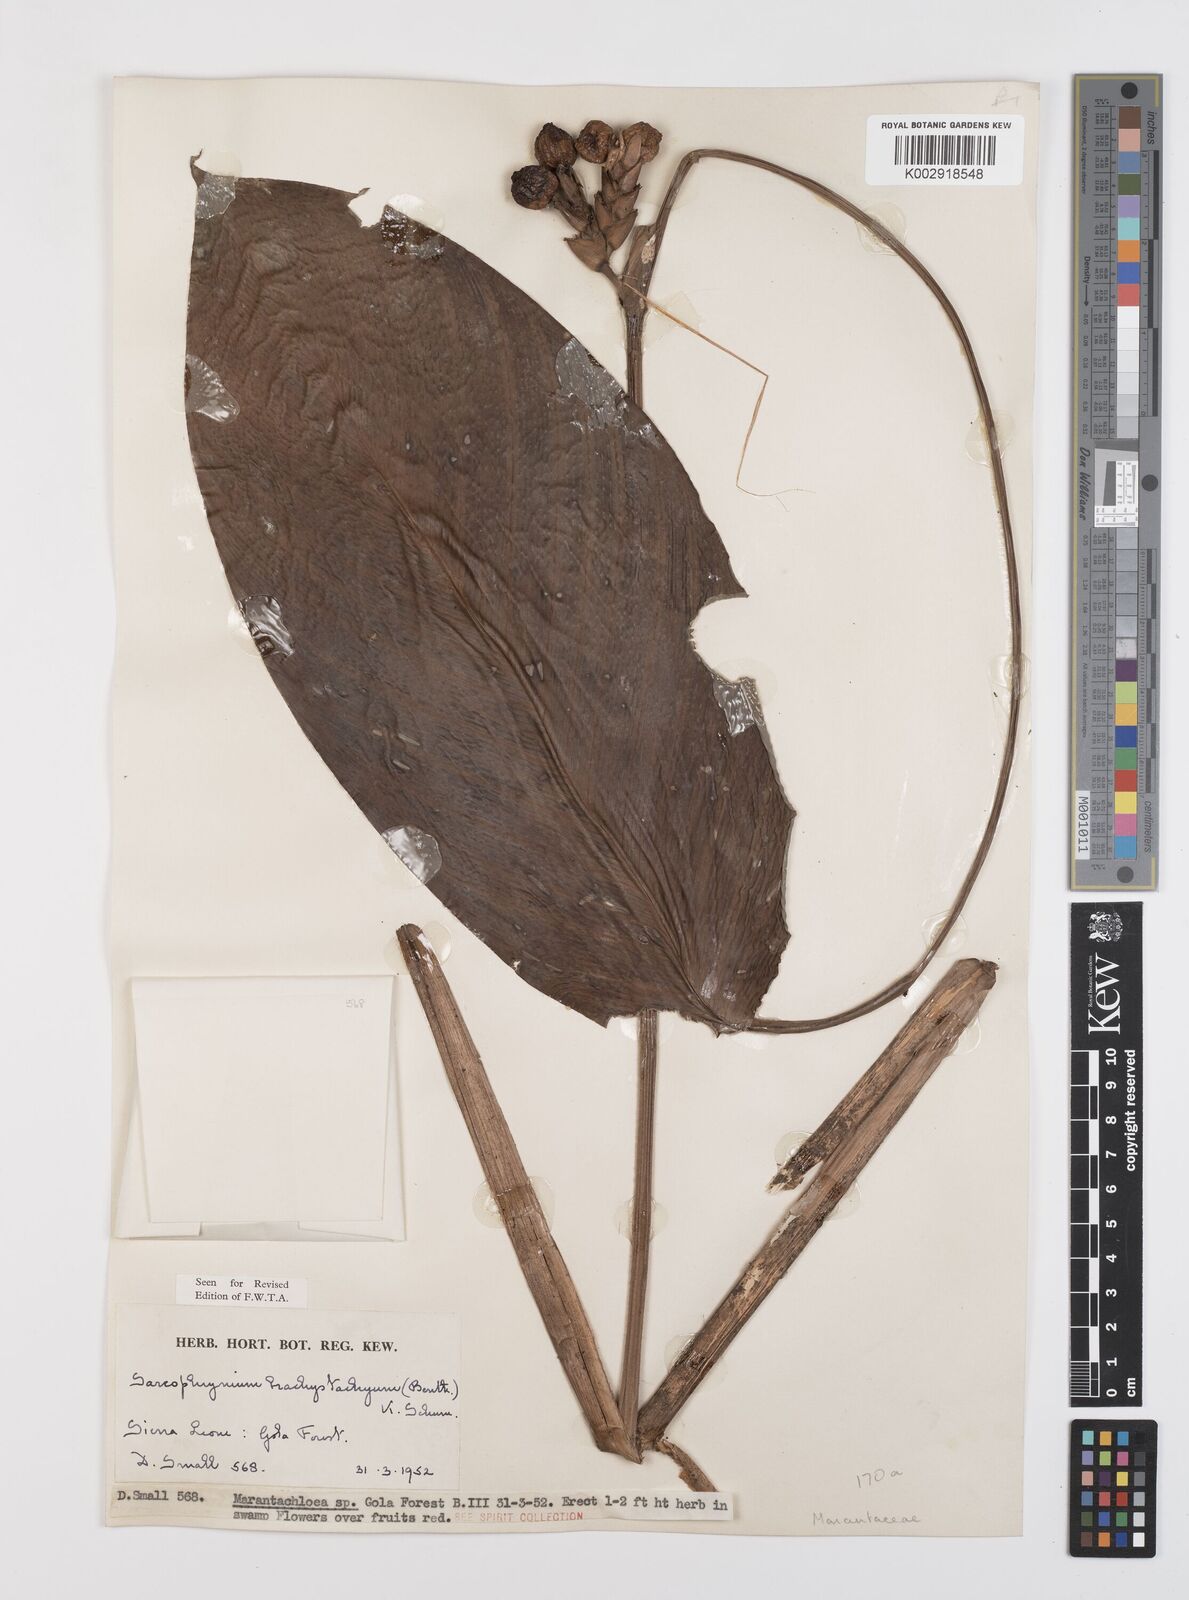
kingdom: Plantae
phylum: Tracheophyta
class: Liliopsida
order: Zingiberales
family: Marantaceae
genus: Sarcophrynium
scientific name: Sarcophrynium brachystachyum
